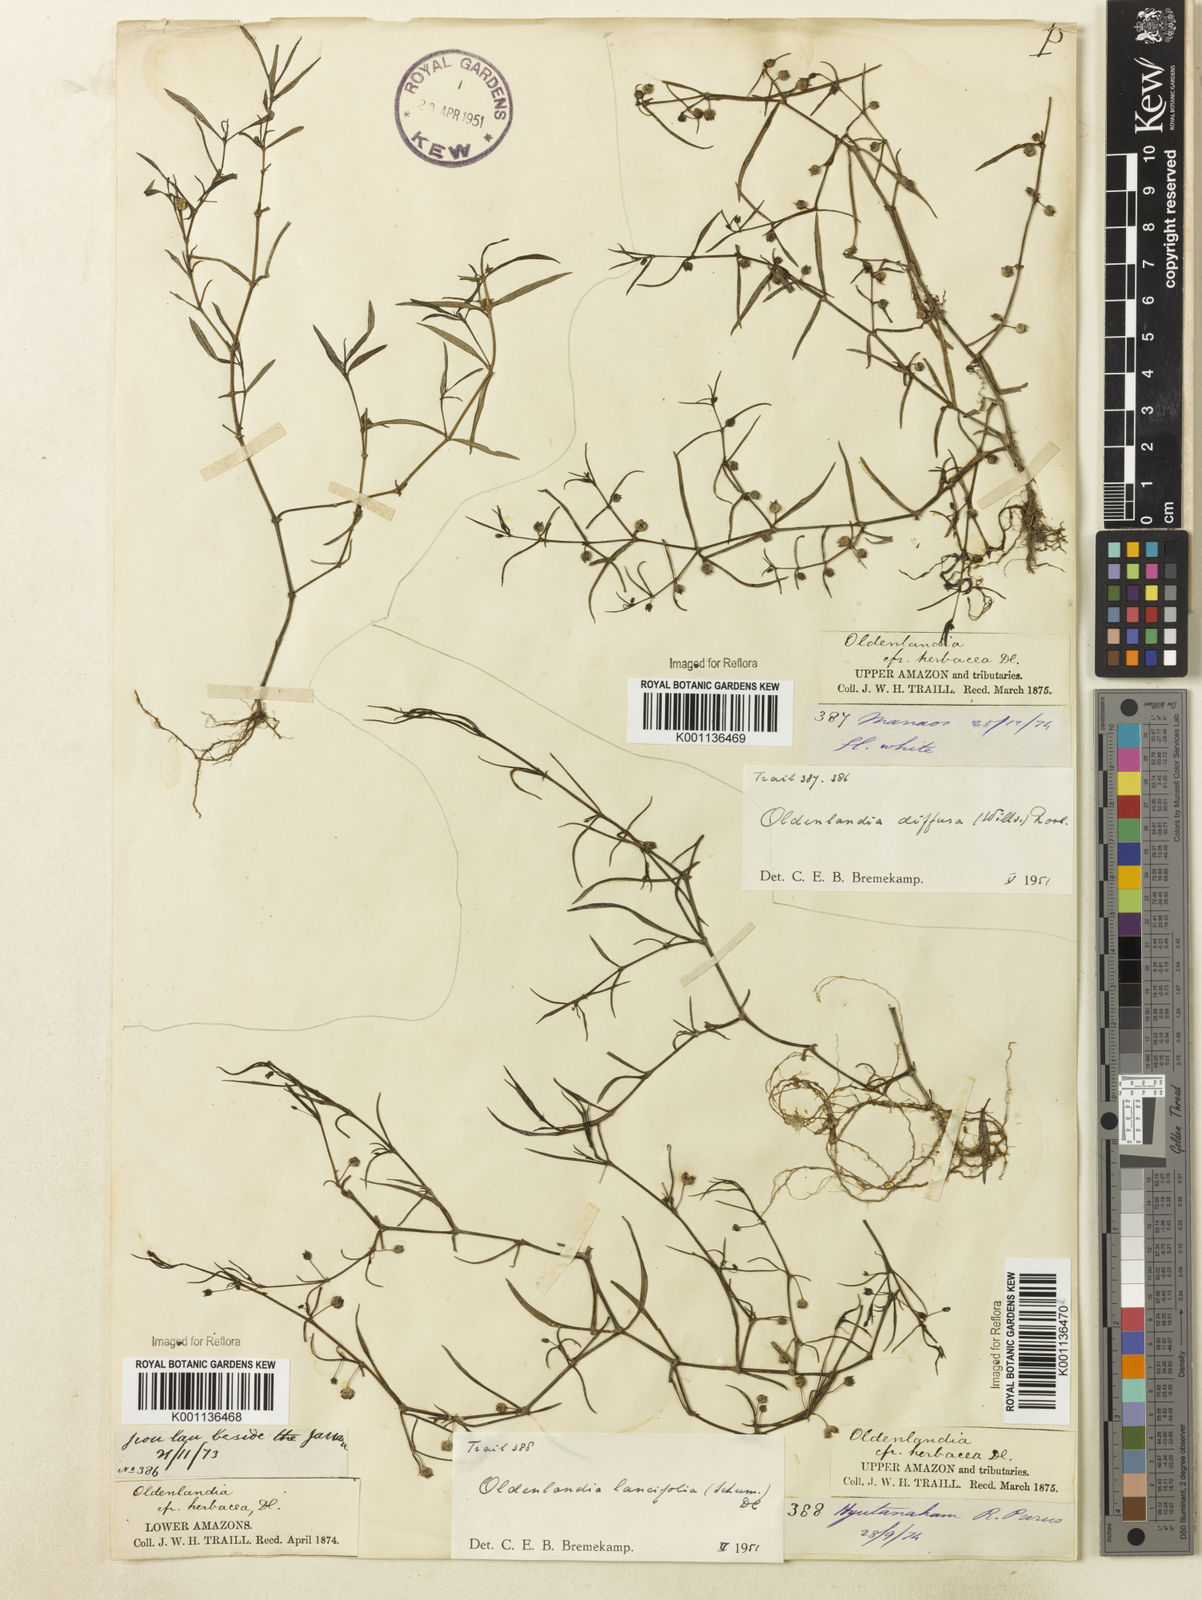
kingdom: Plantae
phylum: Tracheophyta
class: Magnoliopsida
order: Gentianales
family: Rubiaceae
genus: Scleromitrion
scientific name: Scleromitrion diffusum
